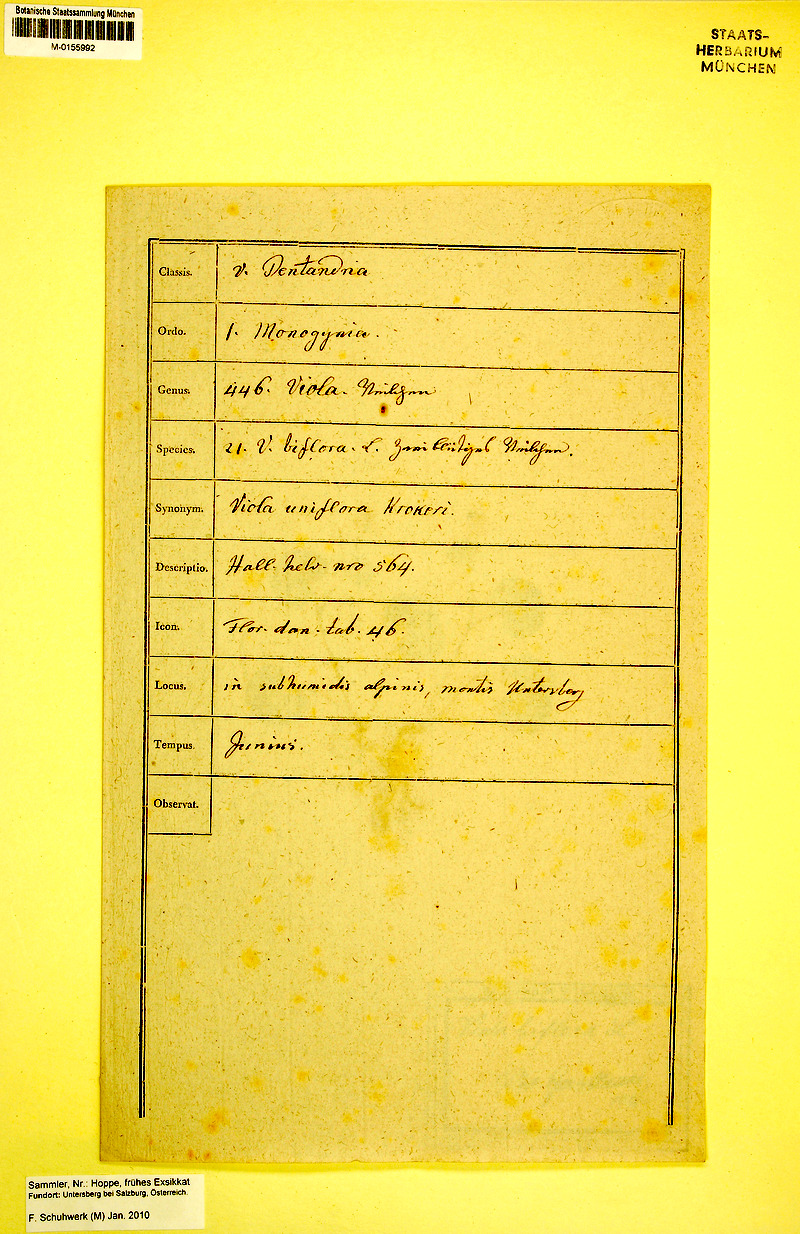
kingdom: Plantae
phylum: Tracheophyta
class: Magnoliopsida
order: Malpighiales
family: Violaceae
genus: Viola
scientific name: Viola biflora
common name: Alpine yellow violet
